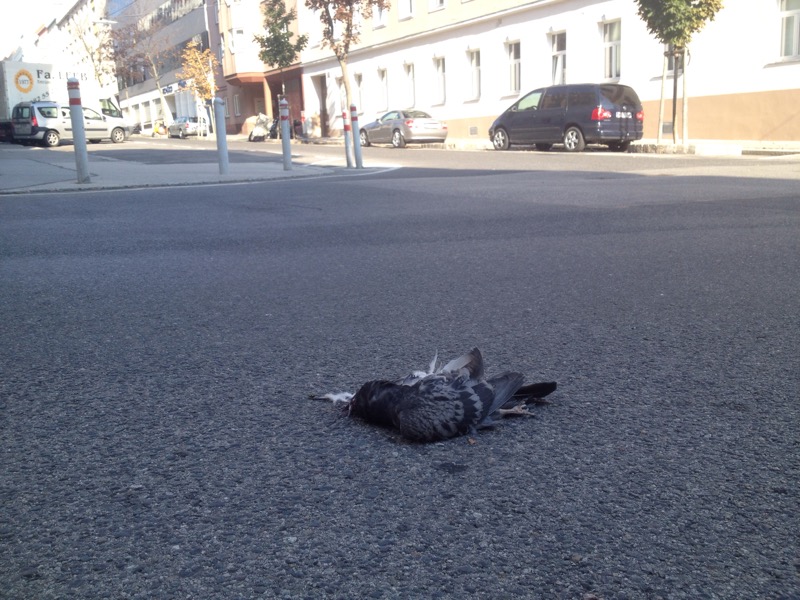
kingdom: Animalia
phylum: Chordata
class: Aves
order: Columbiformes
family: Columbidae
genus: Columba
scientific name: Columba livia
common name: Rock pigeon
